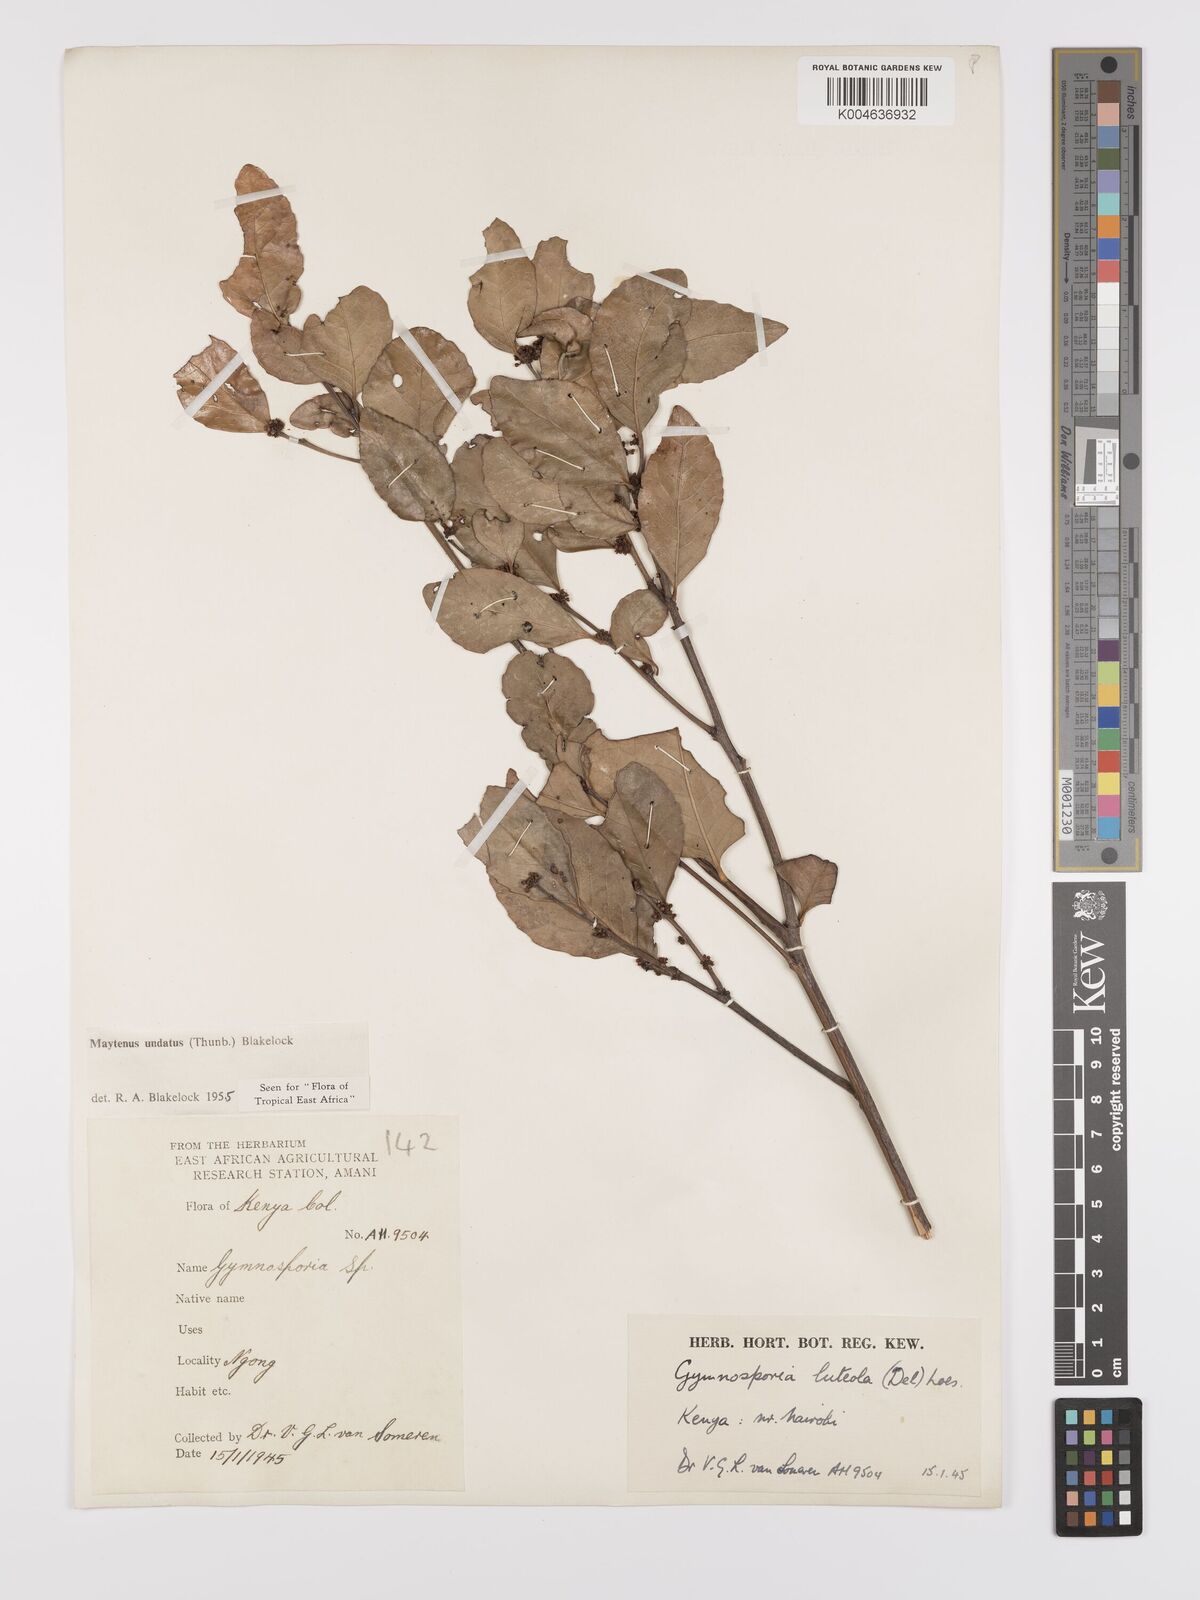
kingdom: Plantae
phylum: Tracheophyta
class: Magnoliopsida
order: Celastrales
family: Celastraceae
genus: Gymnosporia
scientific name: Gymnosporia undata
